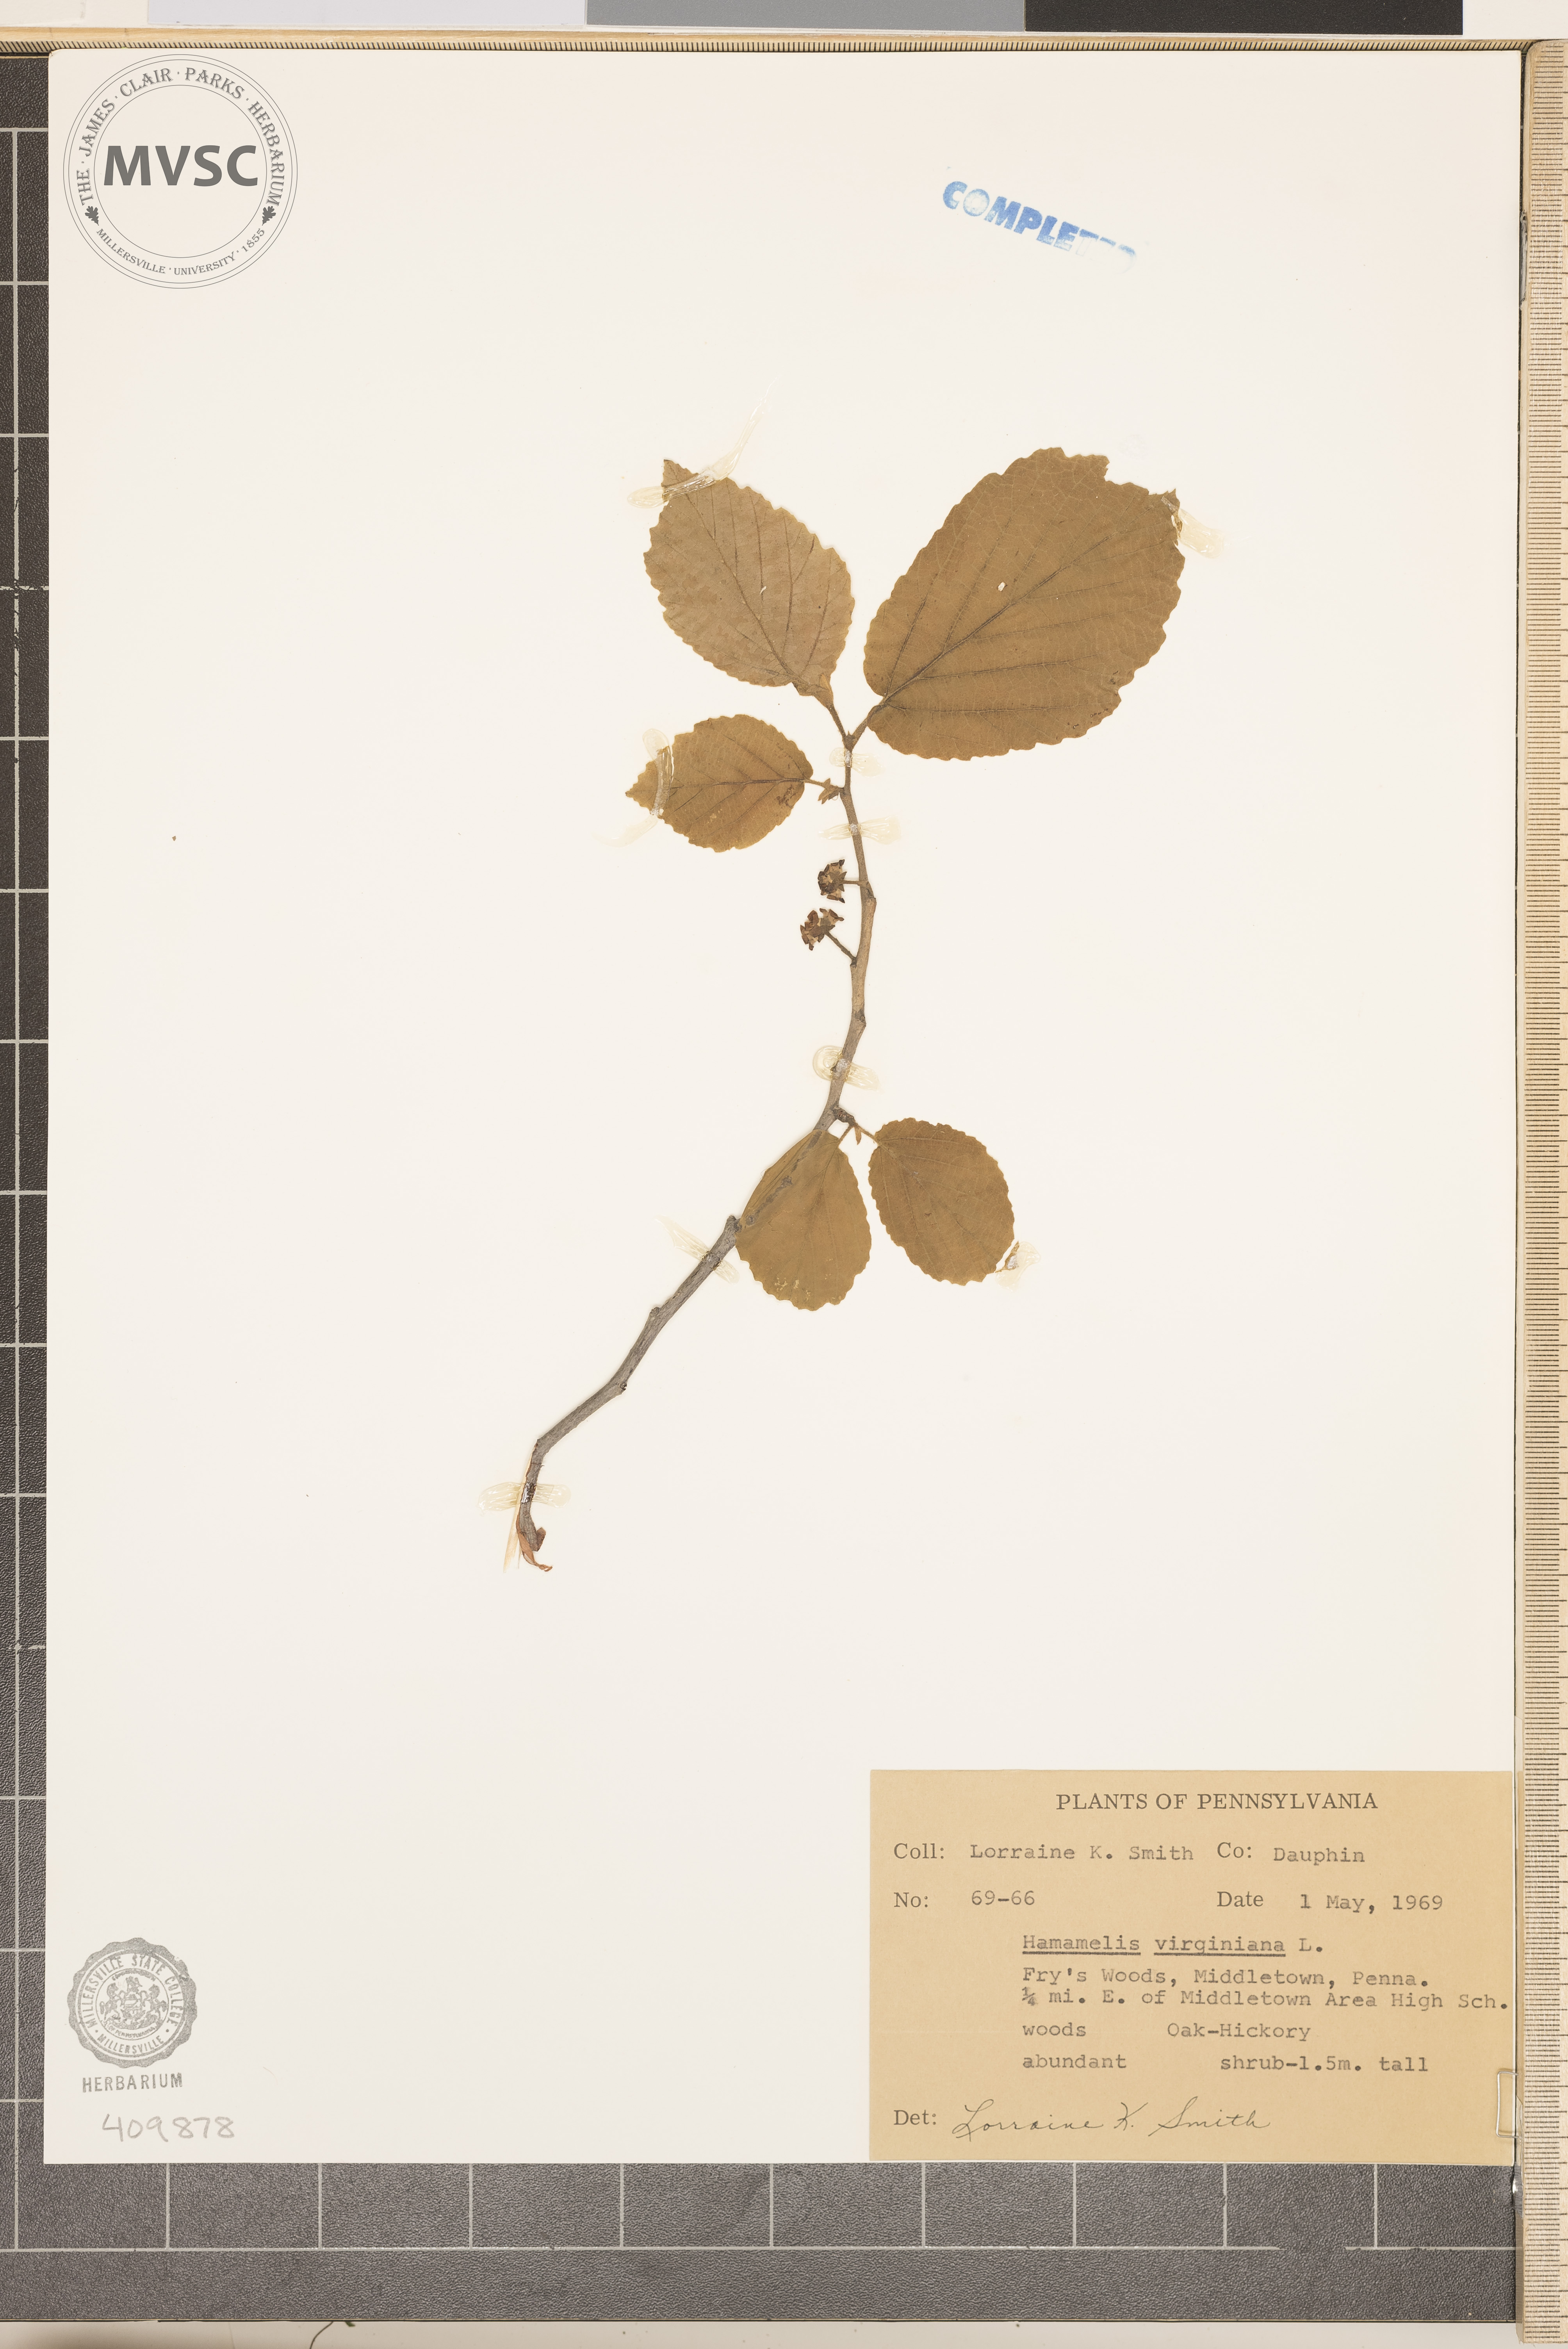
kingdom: Plantae
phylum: Tracheophyta
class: Magnoliopsida
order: Saxifragales
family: Hamamelidaceae
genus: Hamamelis
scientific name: Hamamelis virginiana
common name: Witch-hazel
